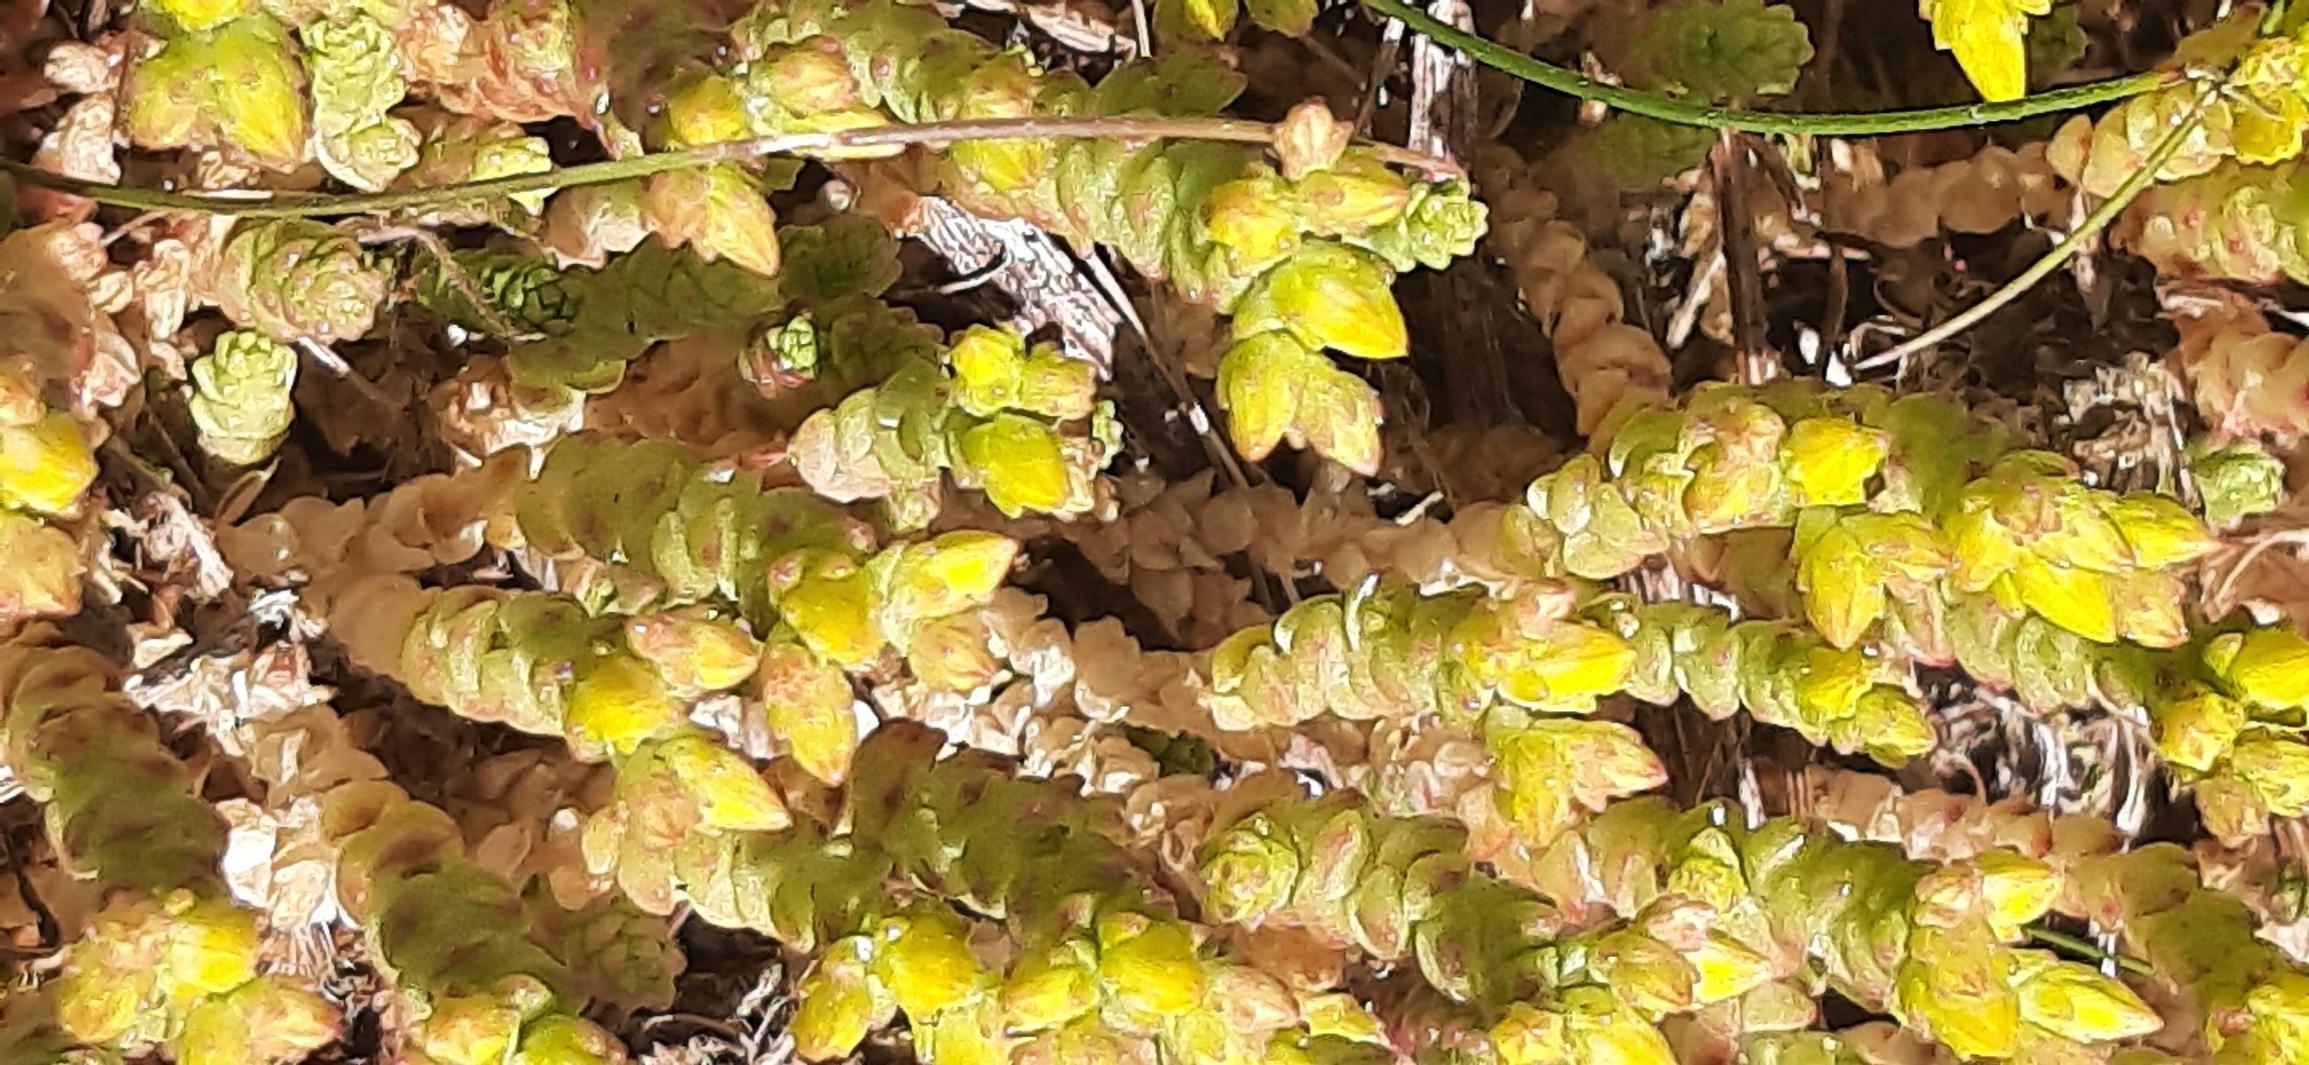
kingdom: Plantae
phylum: Tracheophyta
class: Magnoliopsida
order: Saxifragales
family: Crassulaceae
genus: Sedum
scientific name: Sedum acre
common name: Bidende stenurt
